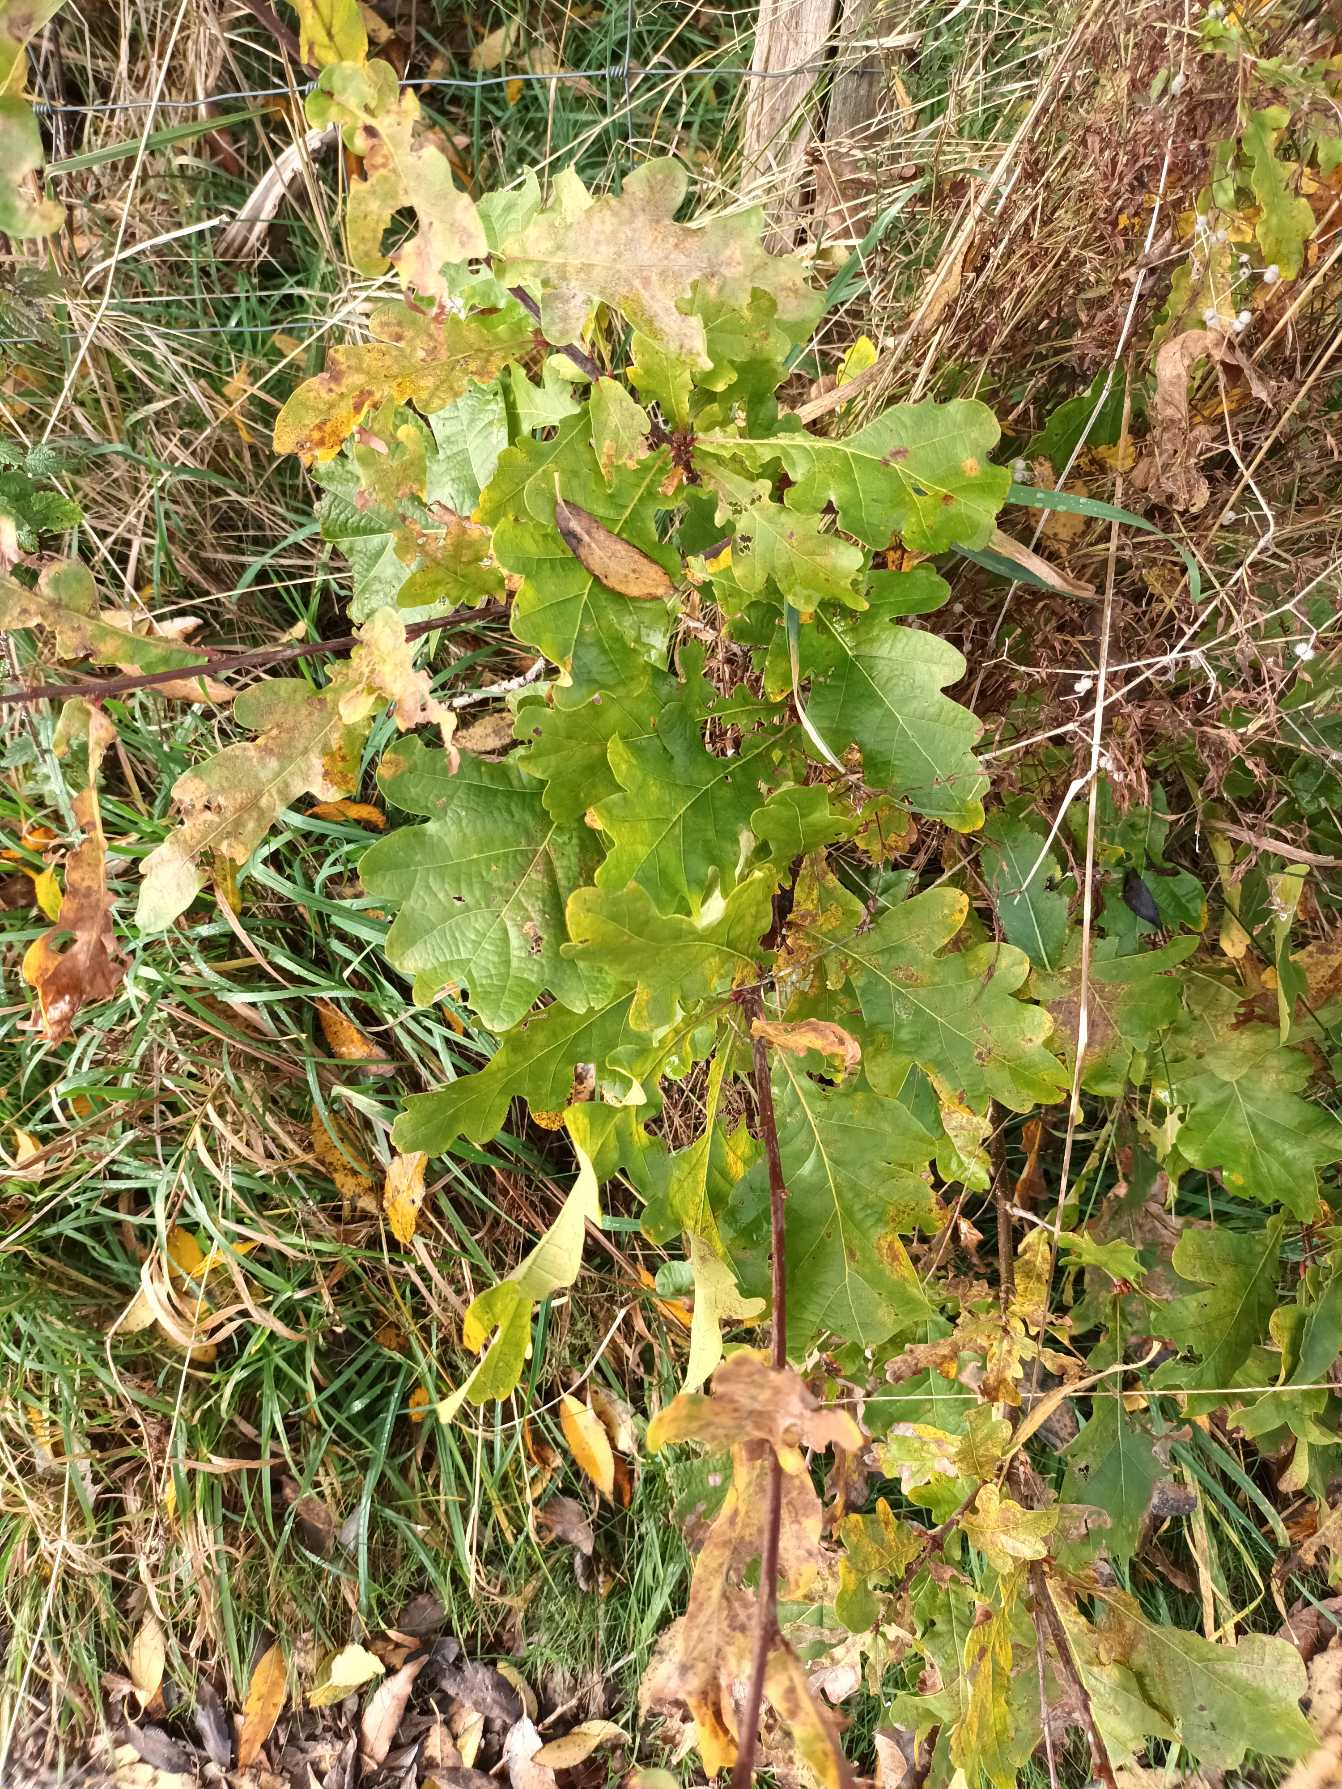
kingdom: Plantae
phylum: Tracheophyta
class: Magnoliopsida
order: Fagales
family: Fagaceae
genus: Quercus
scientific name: Quercus robur
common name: Stilk-eg/almindelig eg
